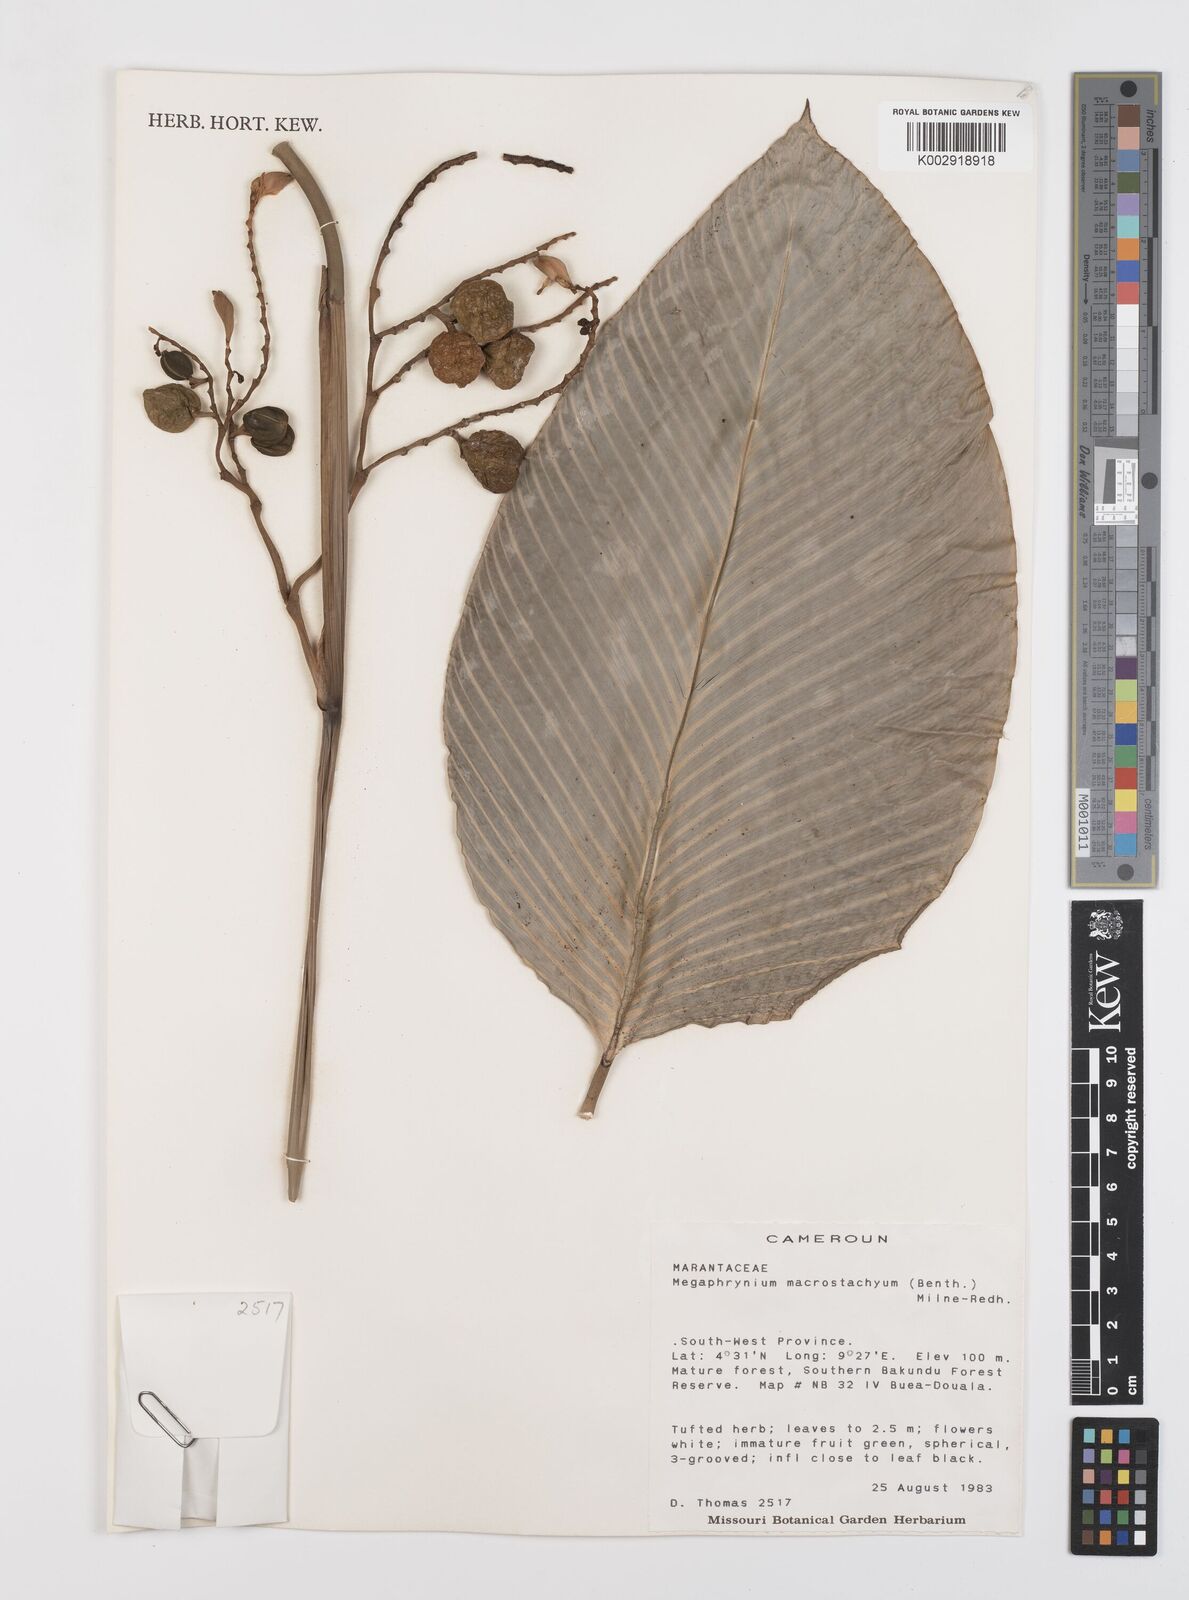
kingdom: Plantae
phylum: Tracheophyta
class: Liliopsida
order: Zingiberales
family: Marantaceae
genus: Megaphrynium
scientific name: Megaphrynium macrostachyum
